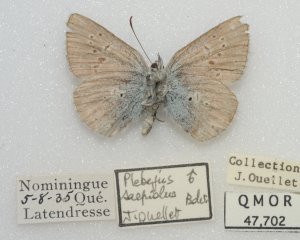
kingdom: Animalia
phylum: Arthropoda
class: Insecta
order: Lepidoptera
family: Lycaenidae
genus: Plebejus
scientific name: Plebejus saepiolus
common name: Greenish Blue
